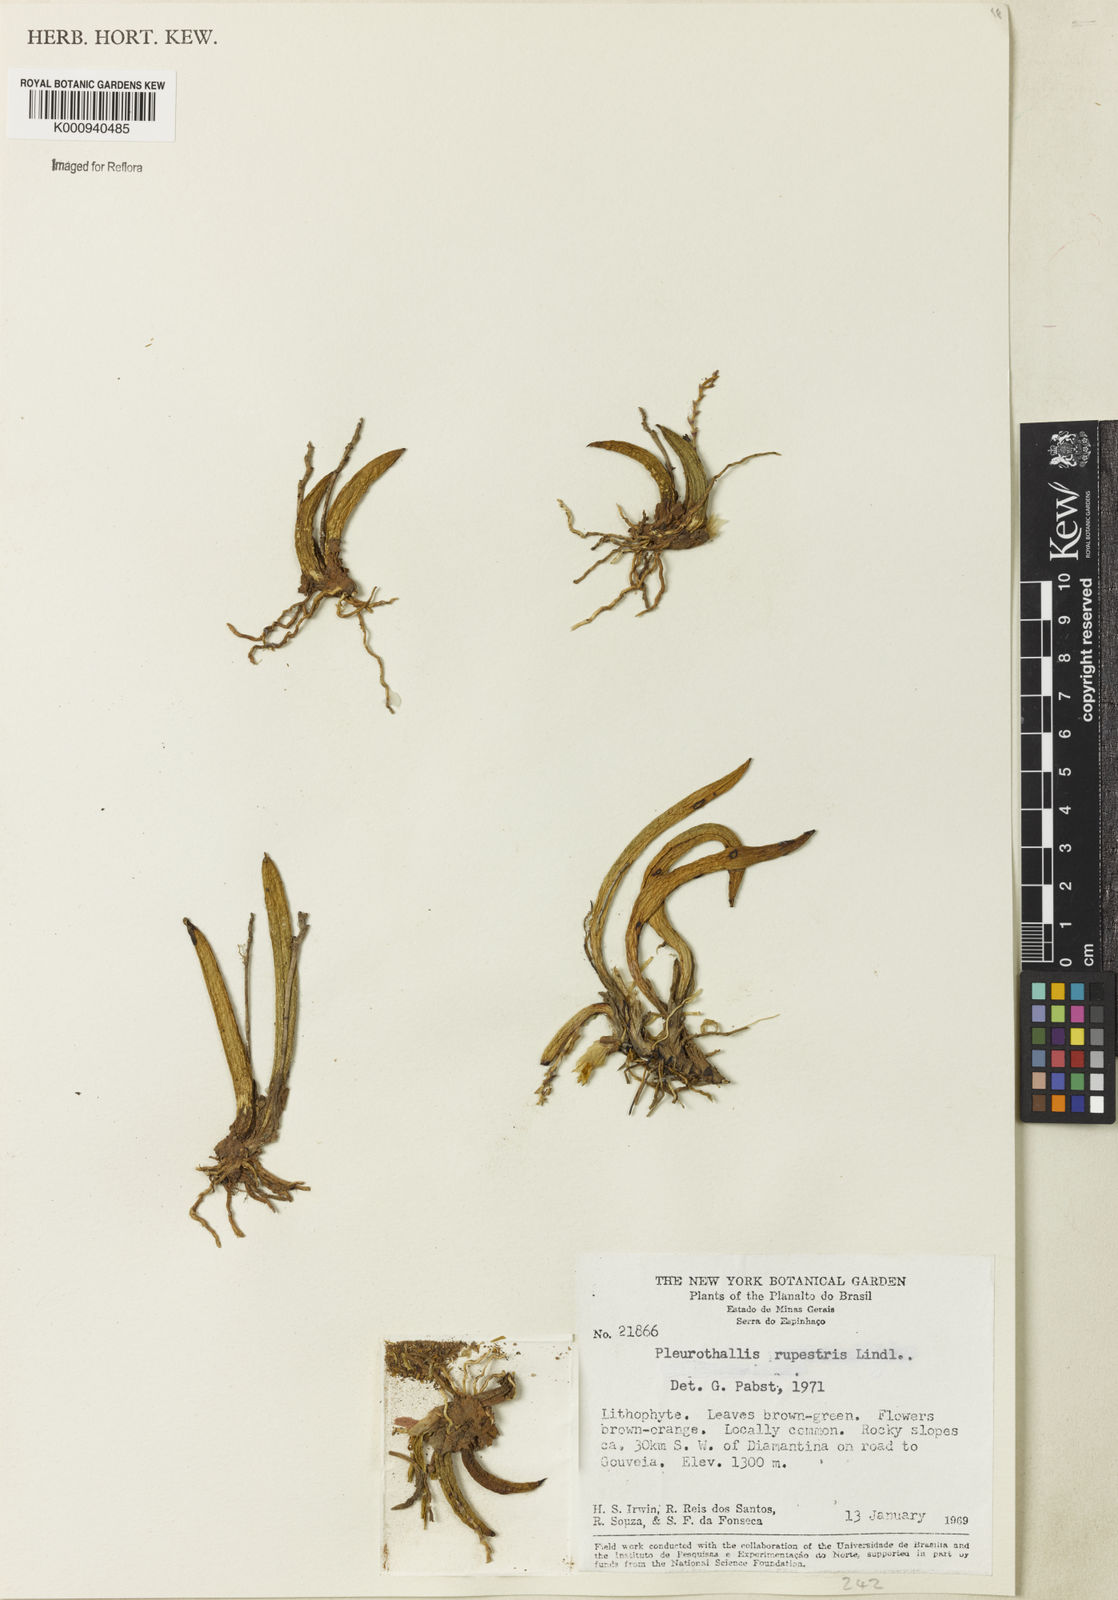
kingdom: Plantae
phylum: Tracheophyta
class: Liliopsida
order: Asparagales
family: Orchidaceae
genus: Acianthera
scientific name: Acianthera teres
